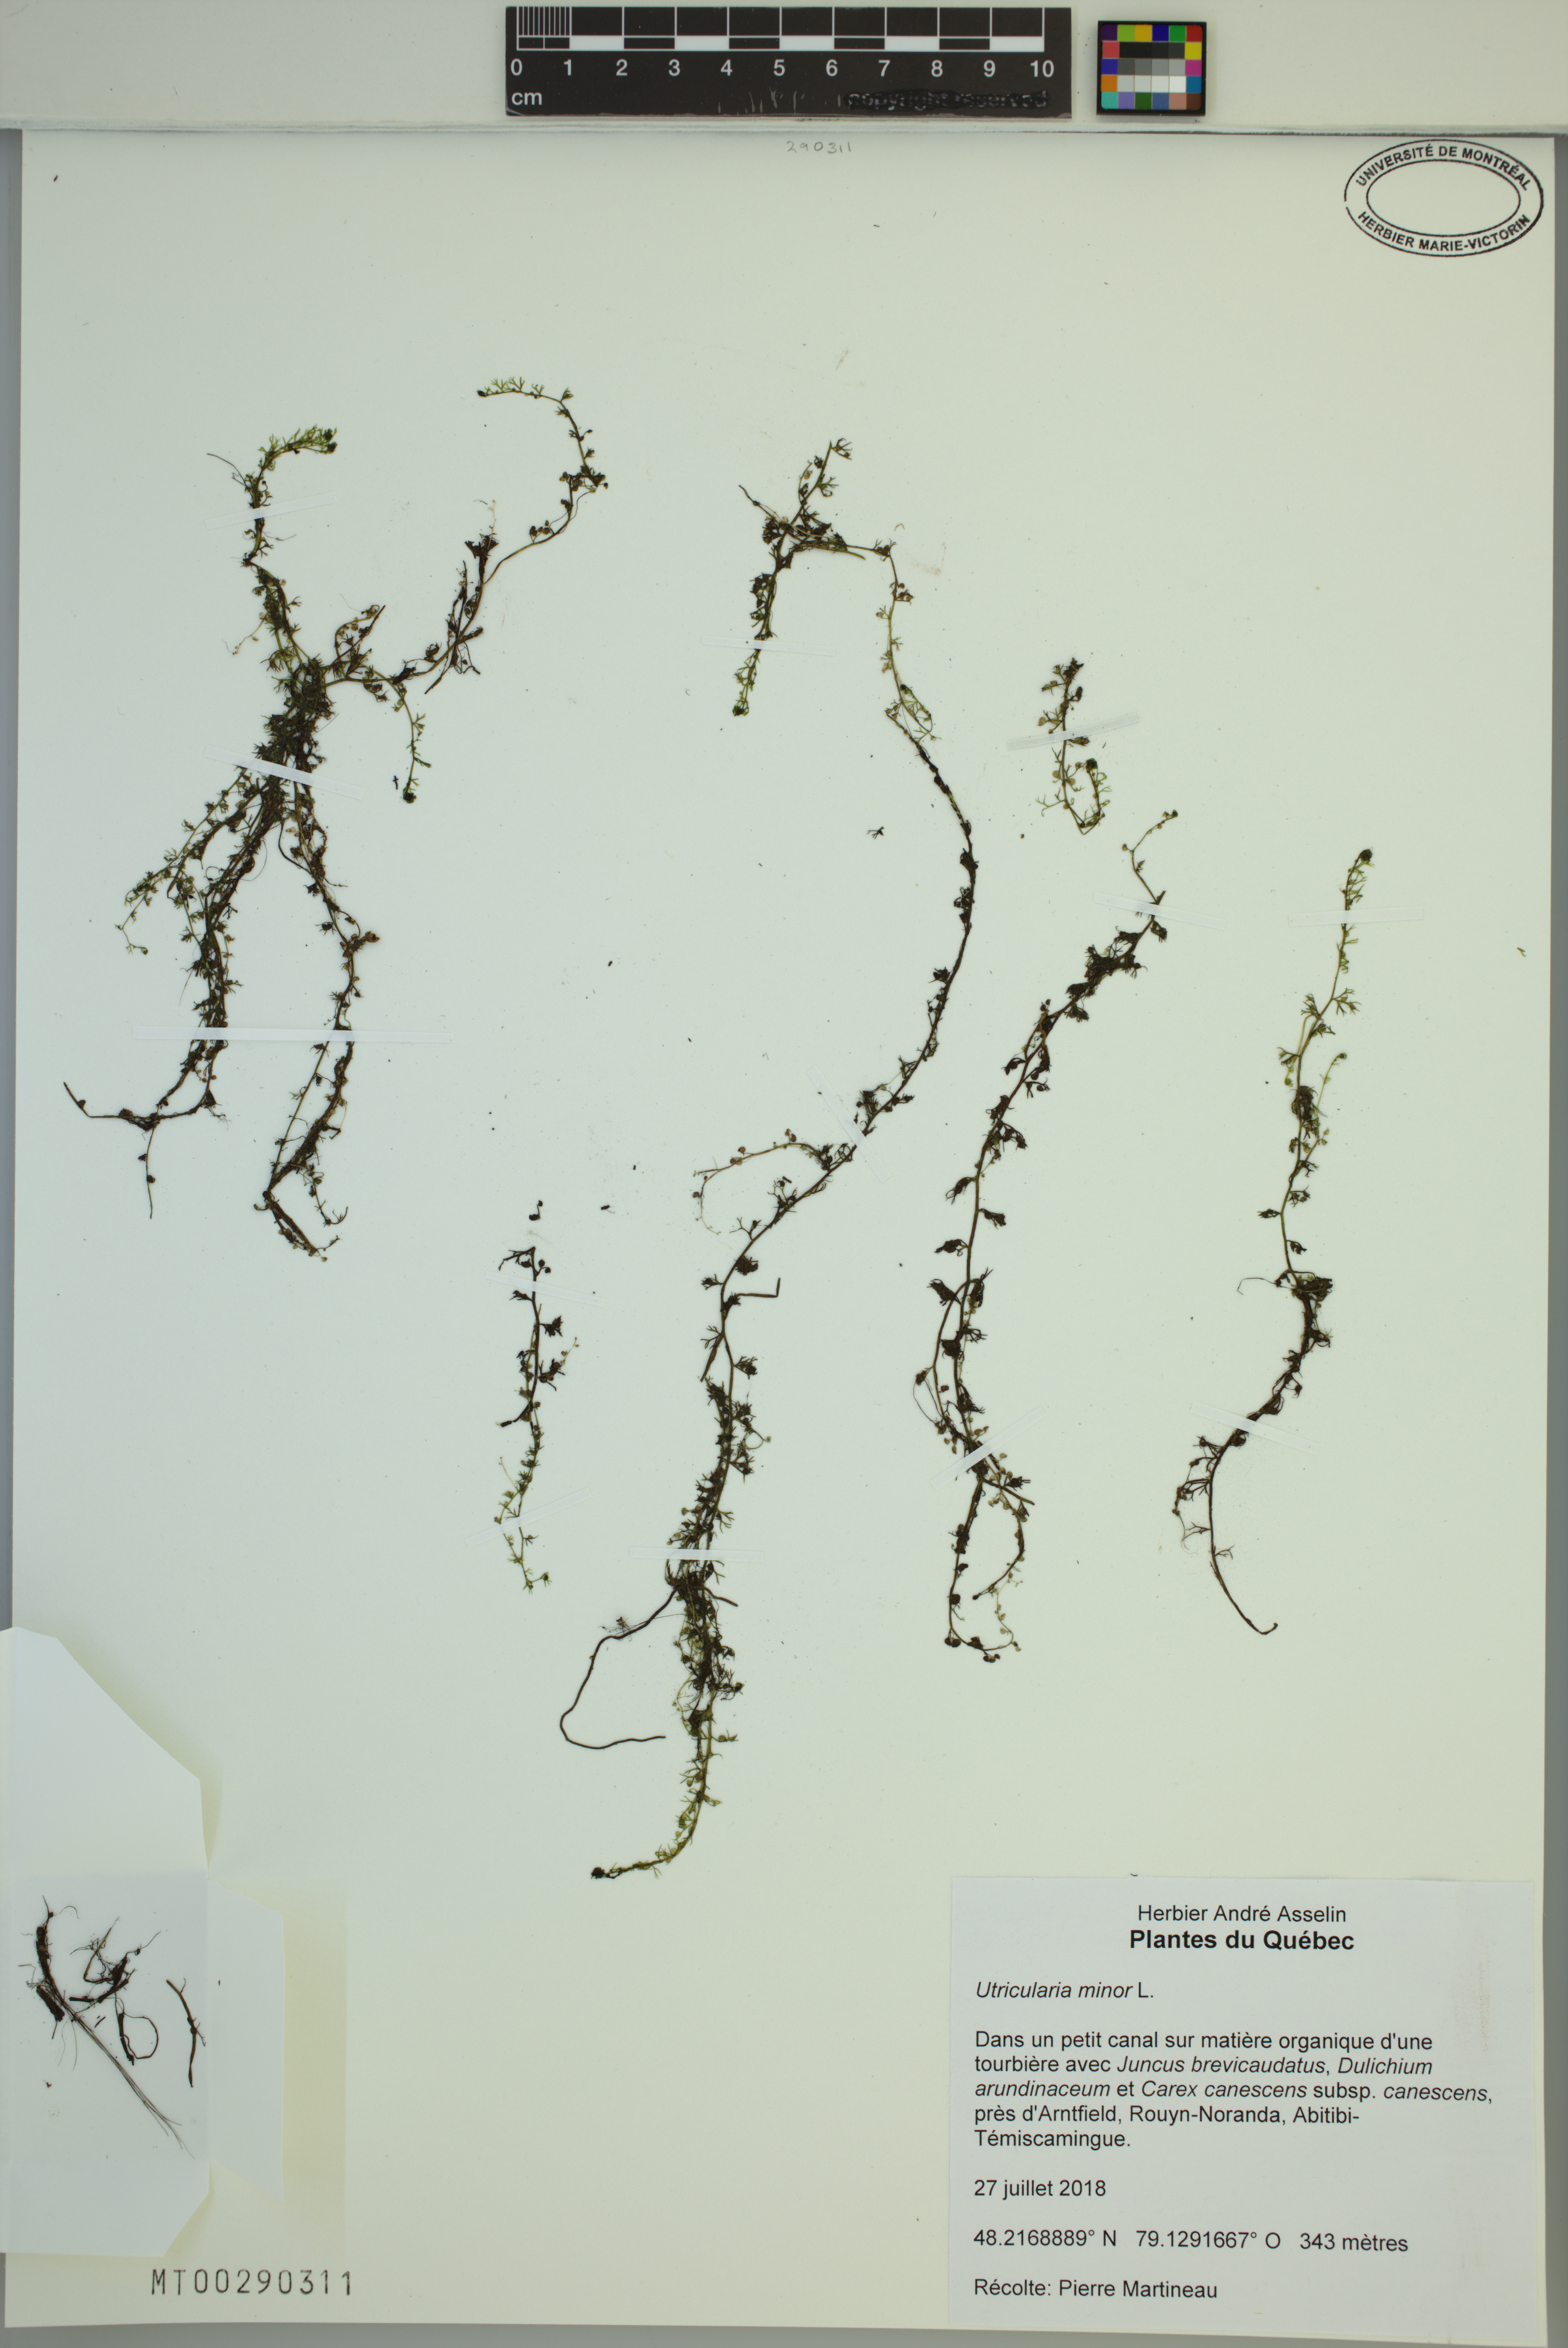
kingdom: Plantae
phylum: Tracheophyta
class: Magnoliopsida
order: Lamiales
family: Lentibulariaceae
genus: Utricularia
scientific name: Utricularia minor
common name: Lesser bladderwort
